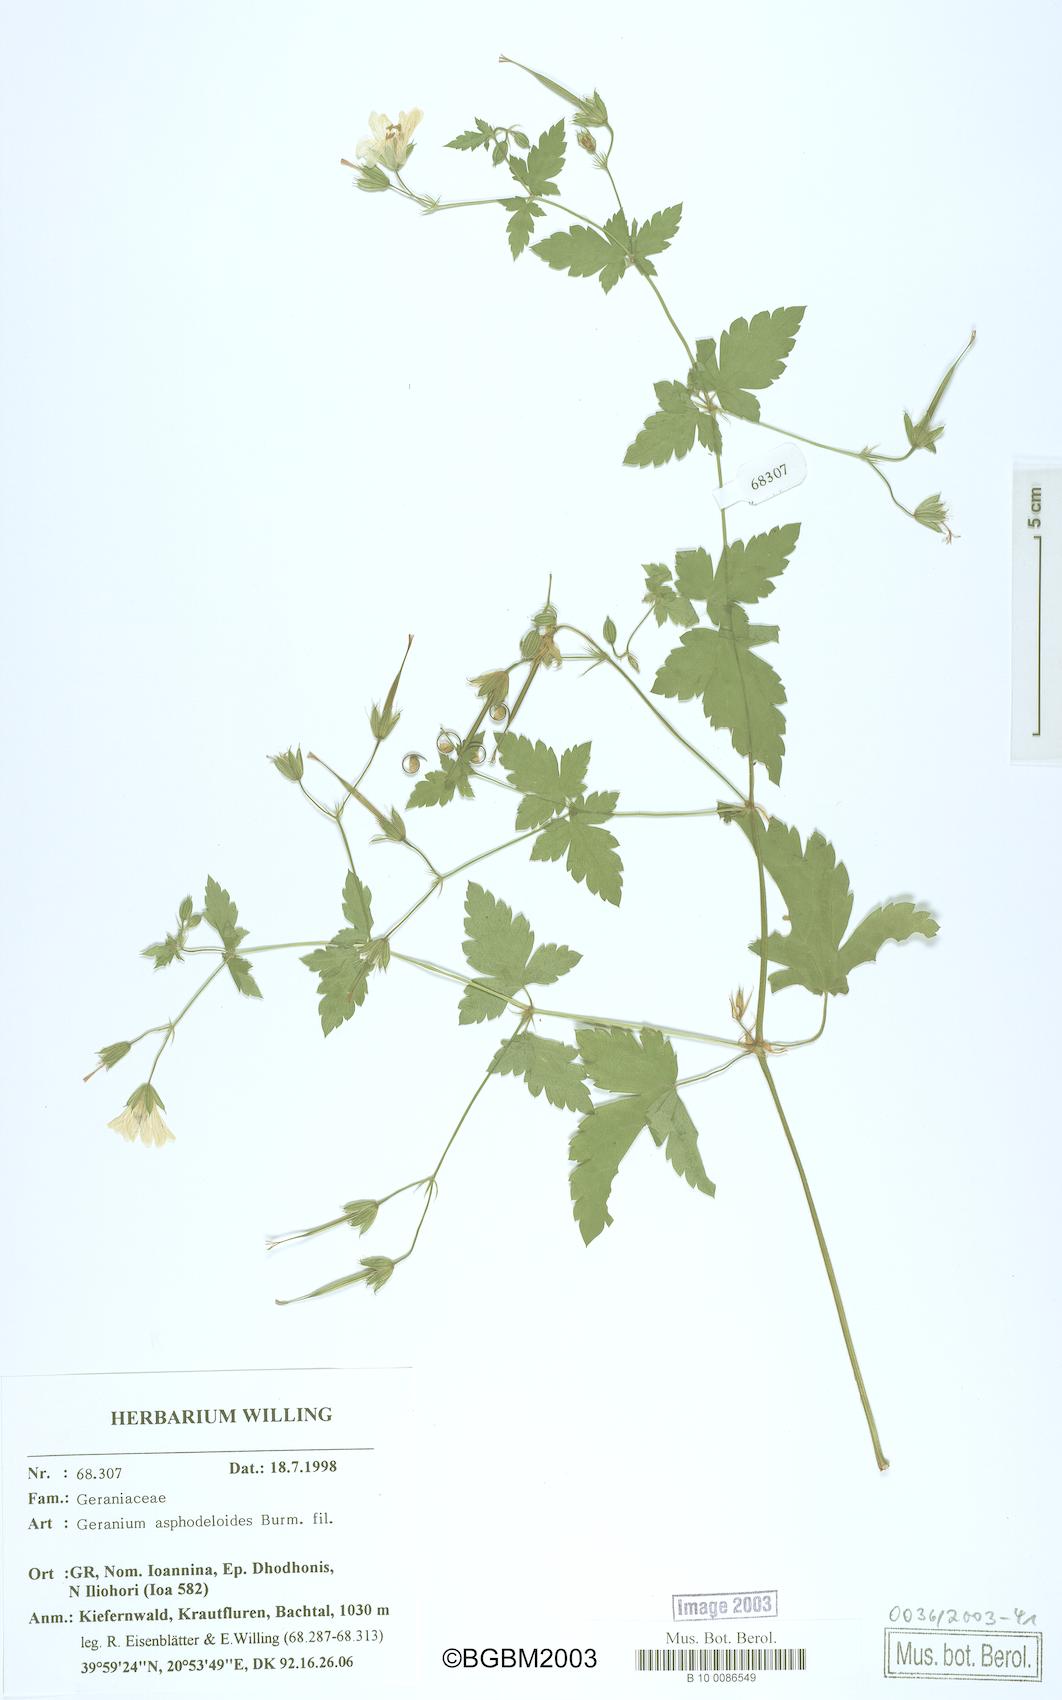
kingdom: Plantae
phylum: Tracheophyta
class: Magnoliopsida
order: Geraniales
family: Geraniaceae
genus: Geranium
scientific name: Geranium asphodeloides
